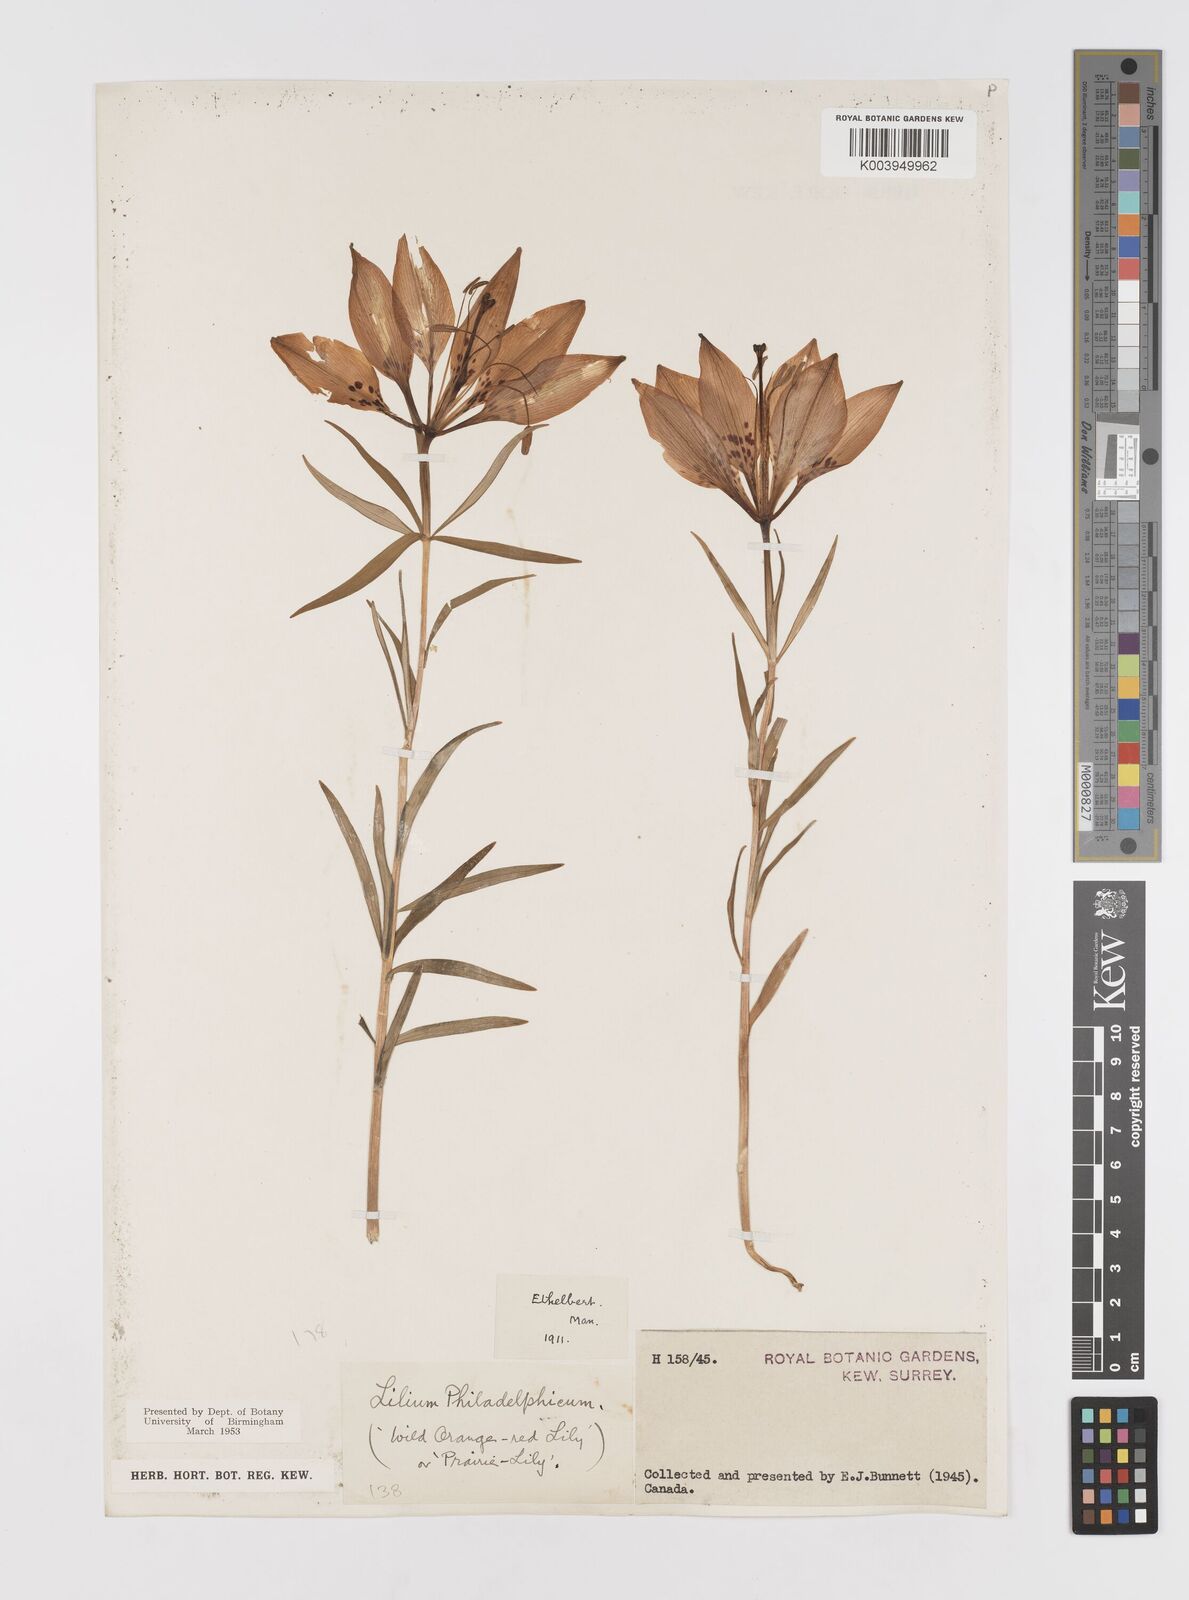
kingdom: Plantae
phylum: Tracheophyta
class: Liliopsida
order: Liliales
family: Liliaceae
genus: Lilium
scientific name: Lilium philadelphicum
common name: Red lily
